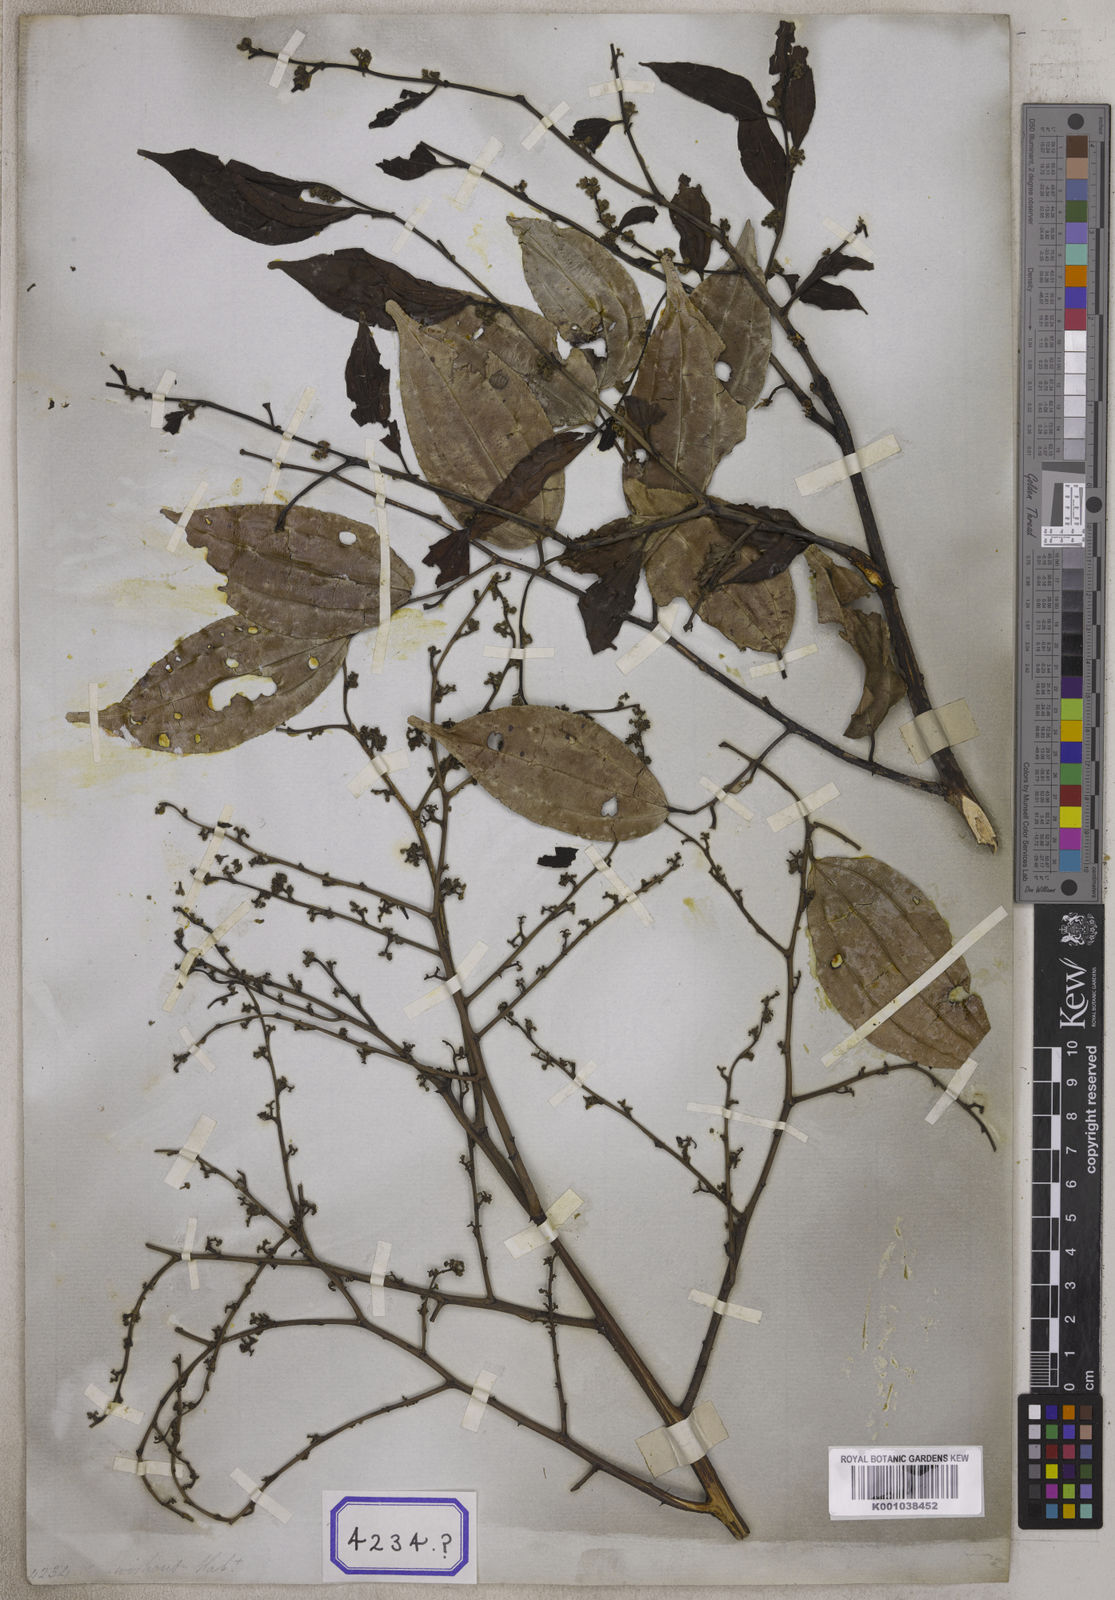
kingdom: Plantae
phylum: Tracheophyta
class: Magnoliopsida
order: Rosales
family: Rhamnaceae
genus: Ziziphus
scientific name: Ziziphus
